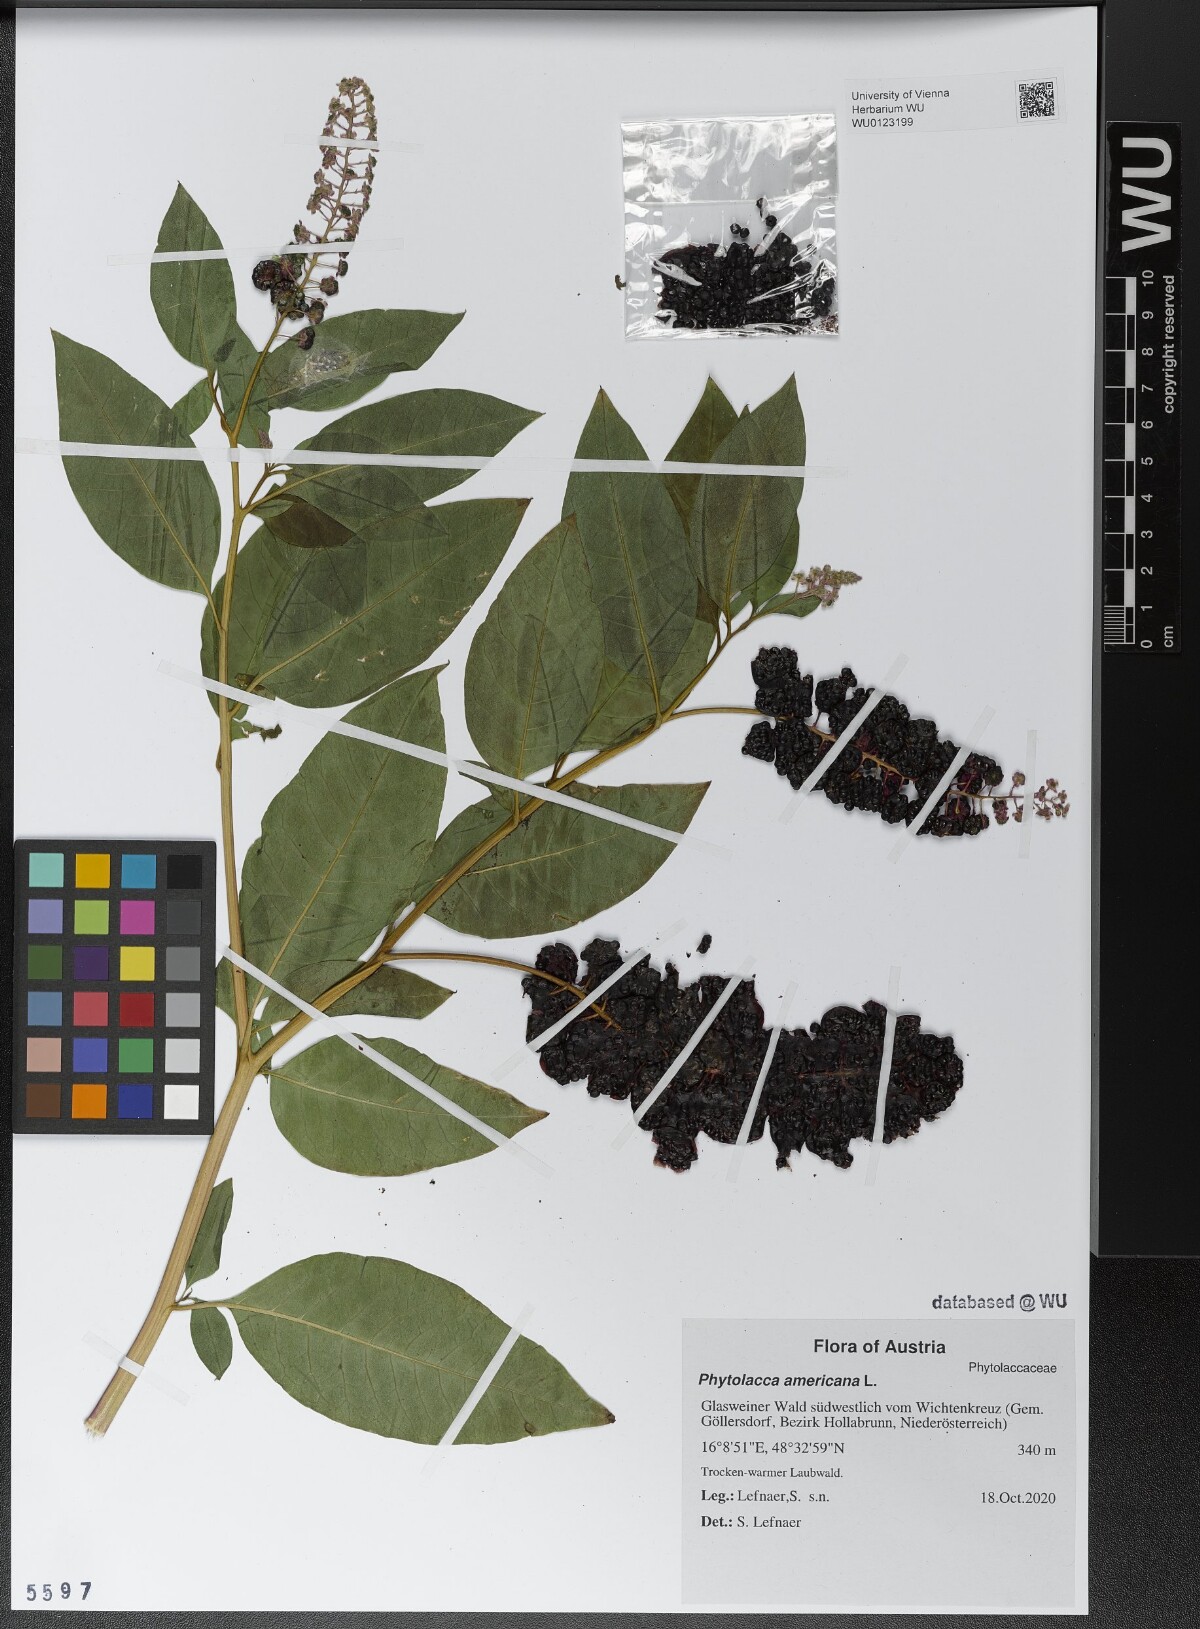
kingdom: Plantae
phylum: Tracheophyta
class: Magnoliopsida
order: Caryophyllales
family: Phytolaccaceae
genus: Phytolacca
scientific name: Phytolacca americana
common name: American pokeweed
